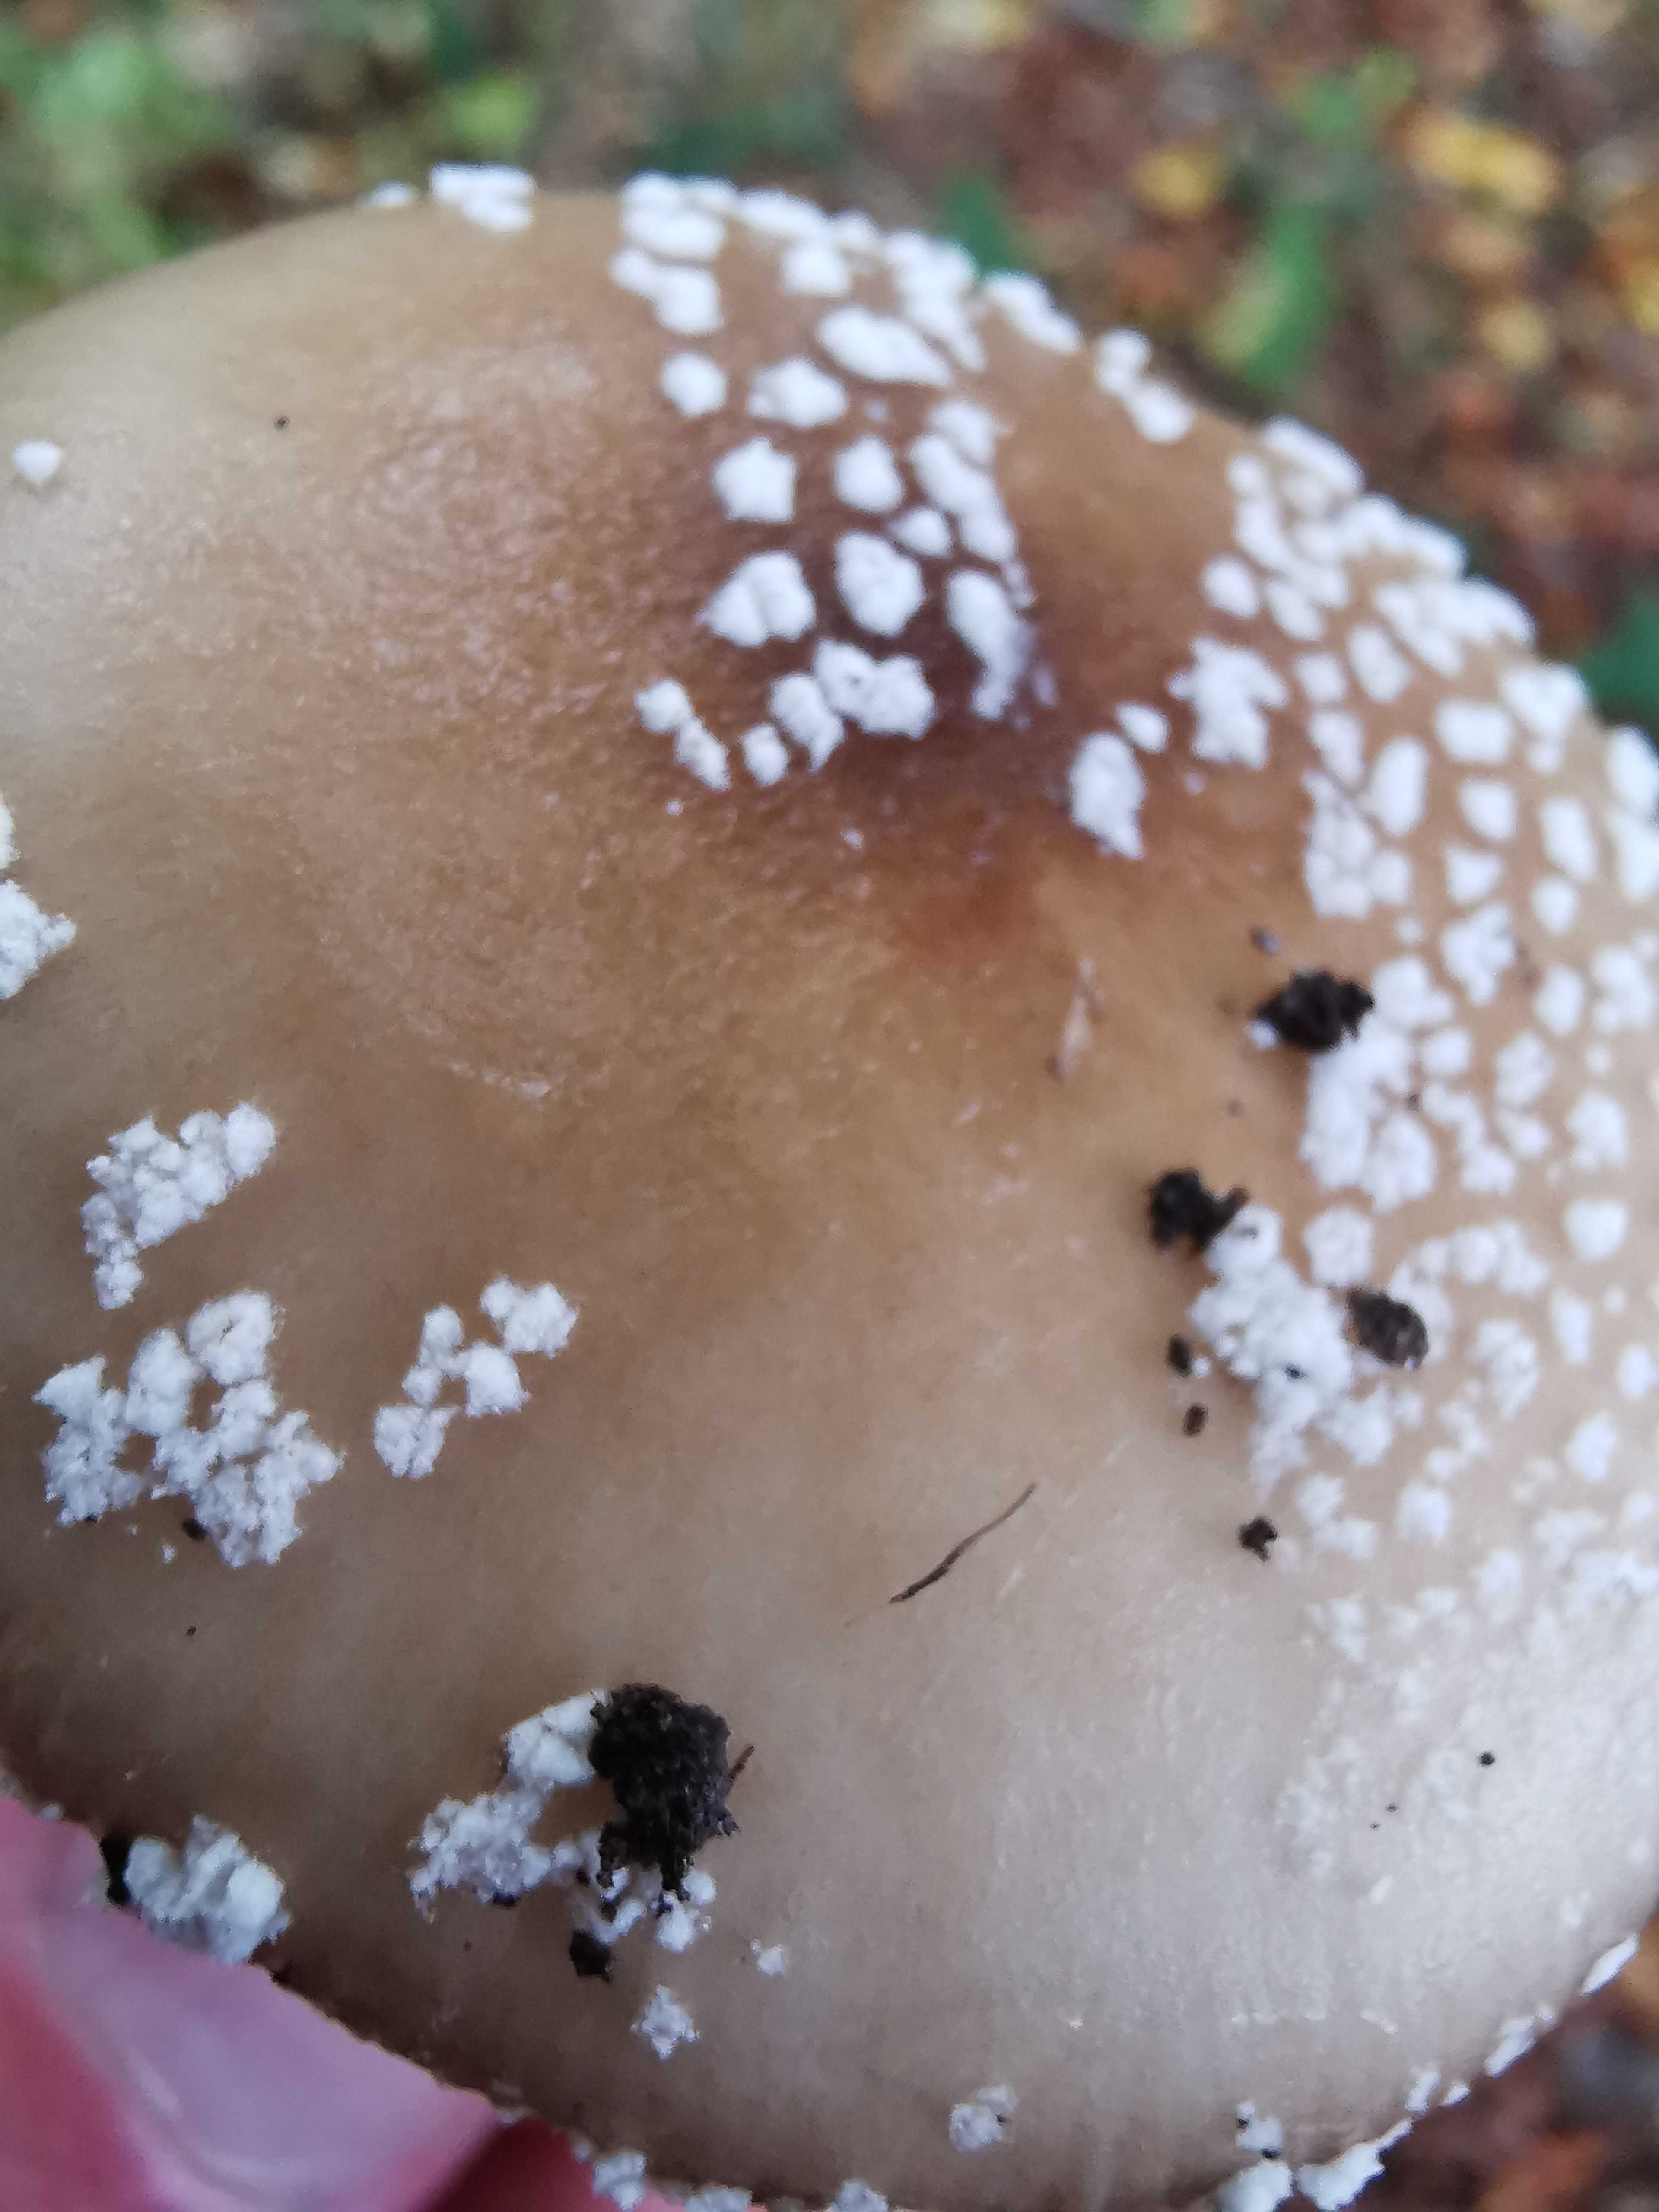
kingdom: Fungi
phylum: Basidiomycota
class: Agaricomycetes
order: Agaricales
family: Amanitaceae
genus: Amanita
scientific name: Amanita pantherina
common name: panter-fluesvamp
